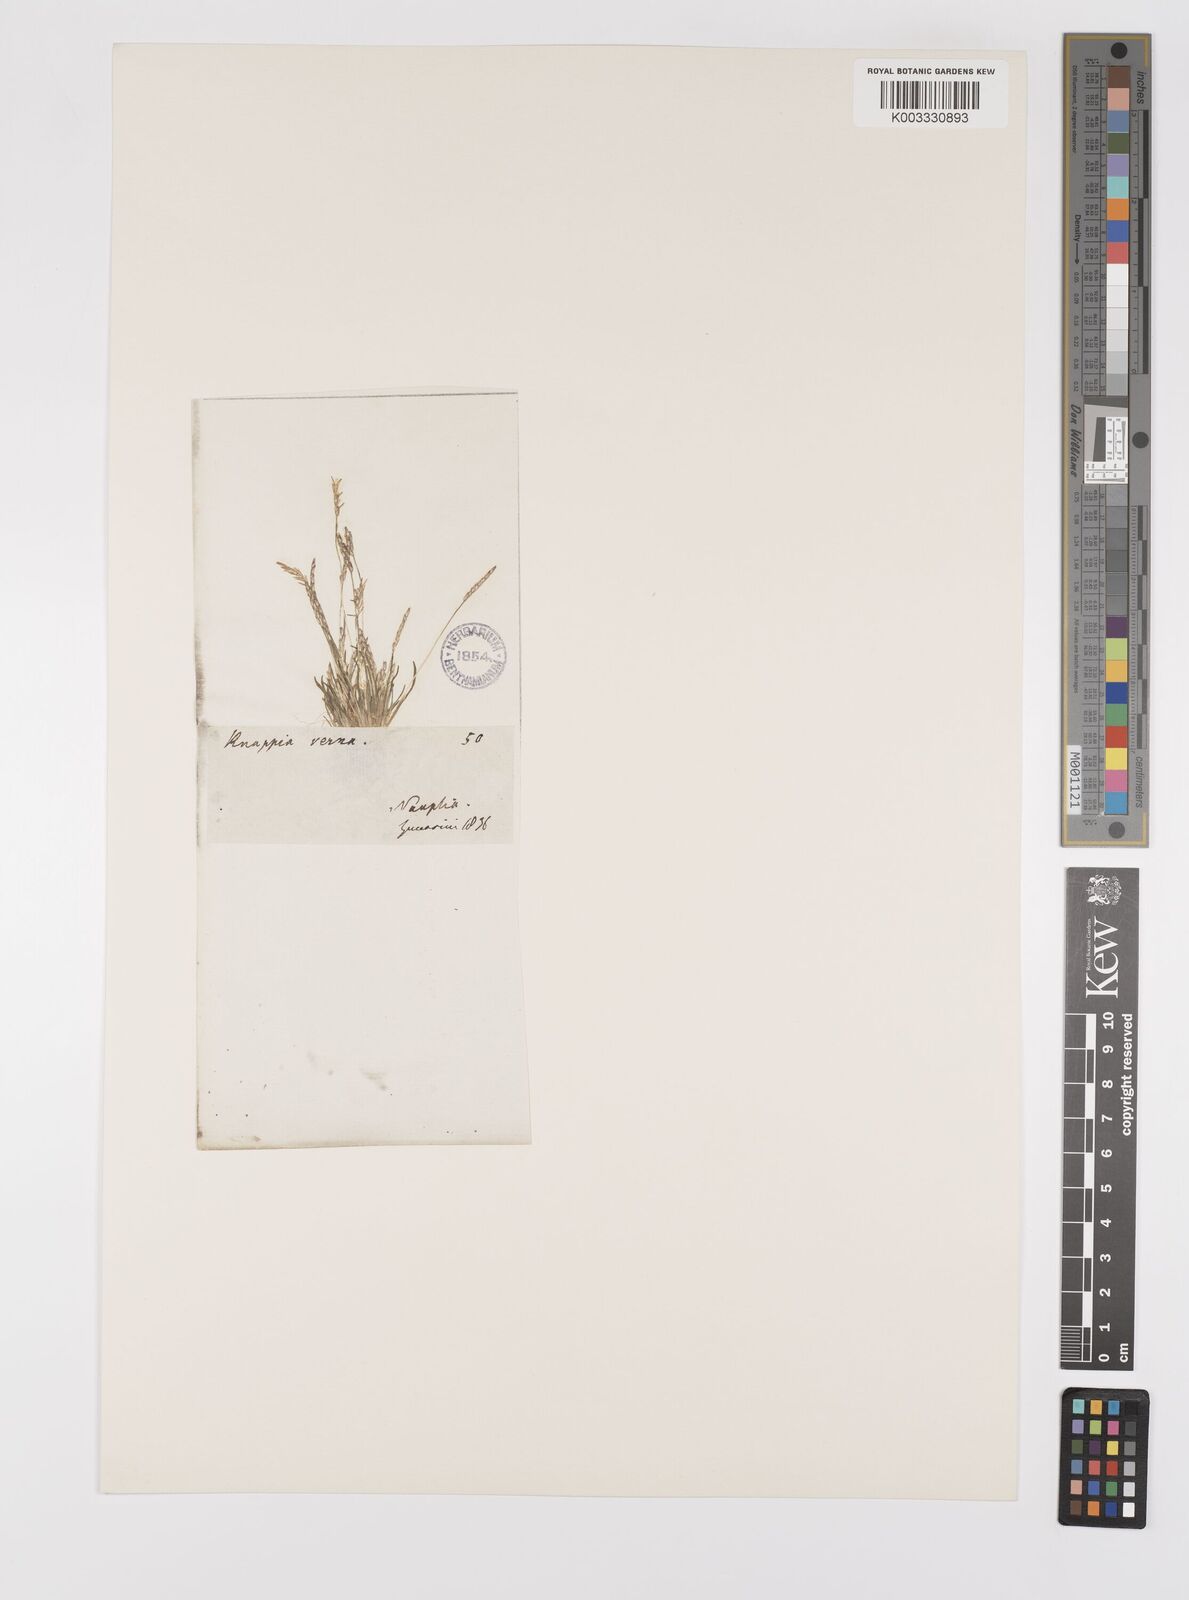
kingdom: Plantae
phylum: Tracheophyta
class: Liliopsida
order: Poales
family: Poaceae
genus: Mibora
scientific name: Mibora minima
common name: Early sand-grass
